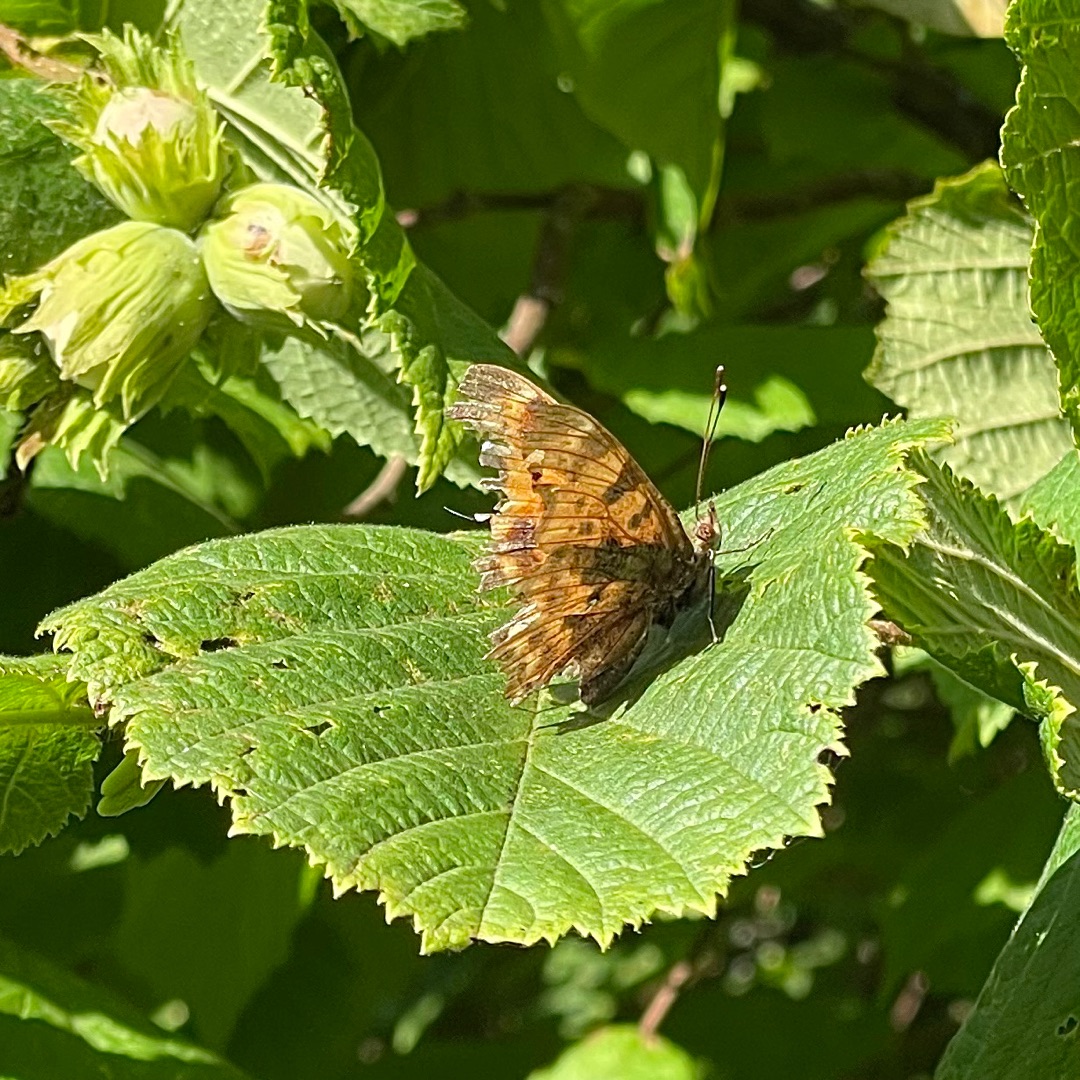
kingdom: Animalia
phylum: Arthropoda
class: Insecta
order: Lepidoptera
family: Nymphalidae
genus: Polygonia
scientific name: Polygonia c-album
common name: Det hvide C
